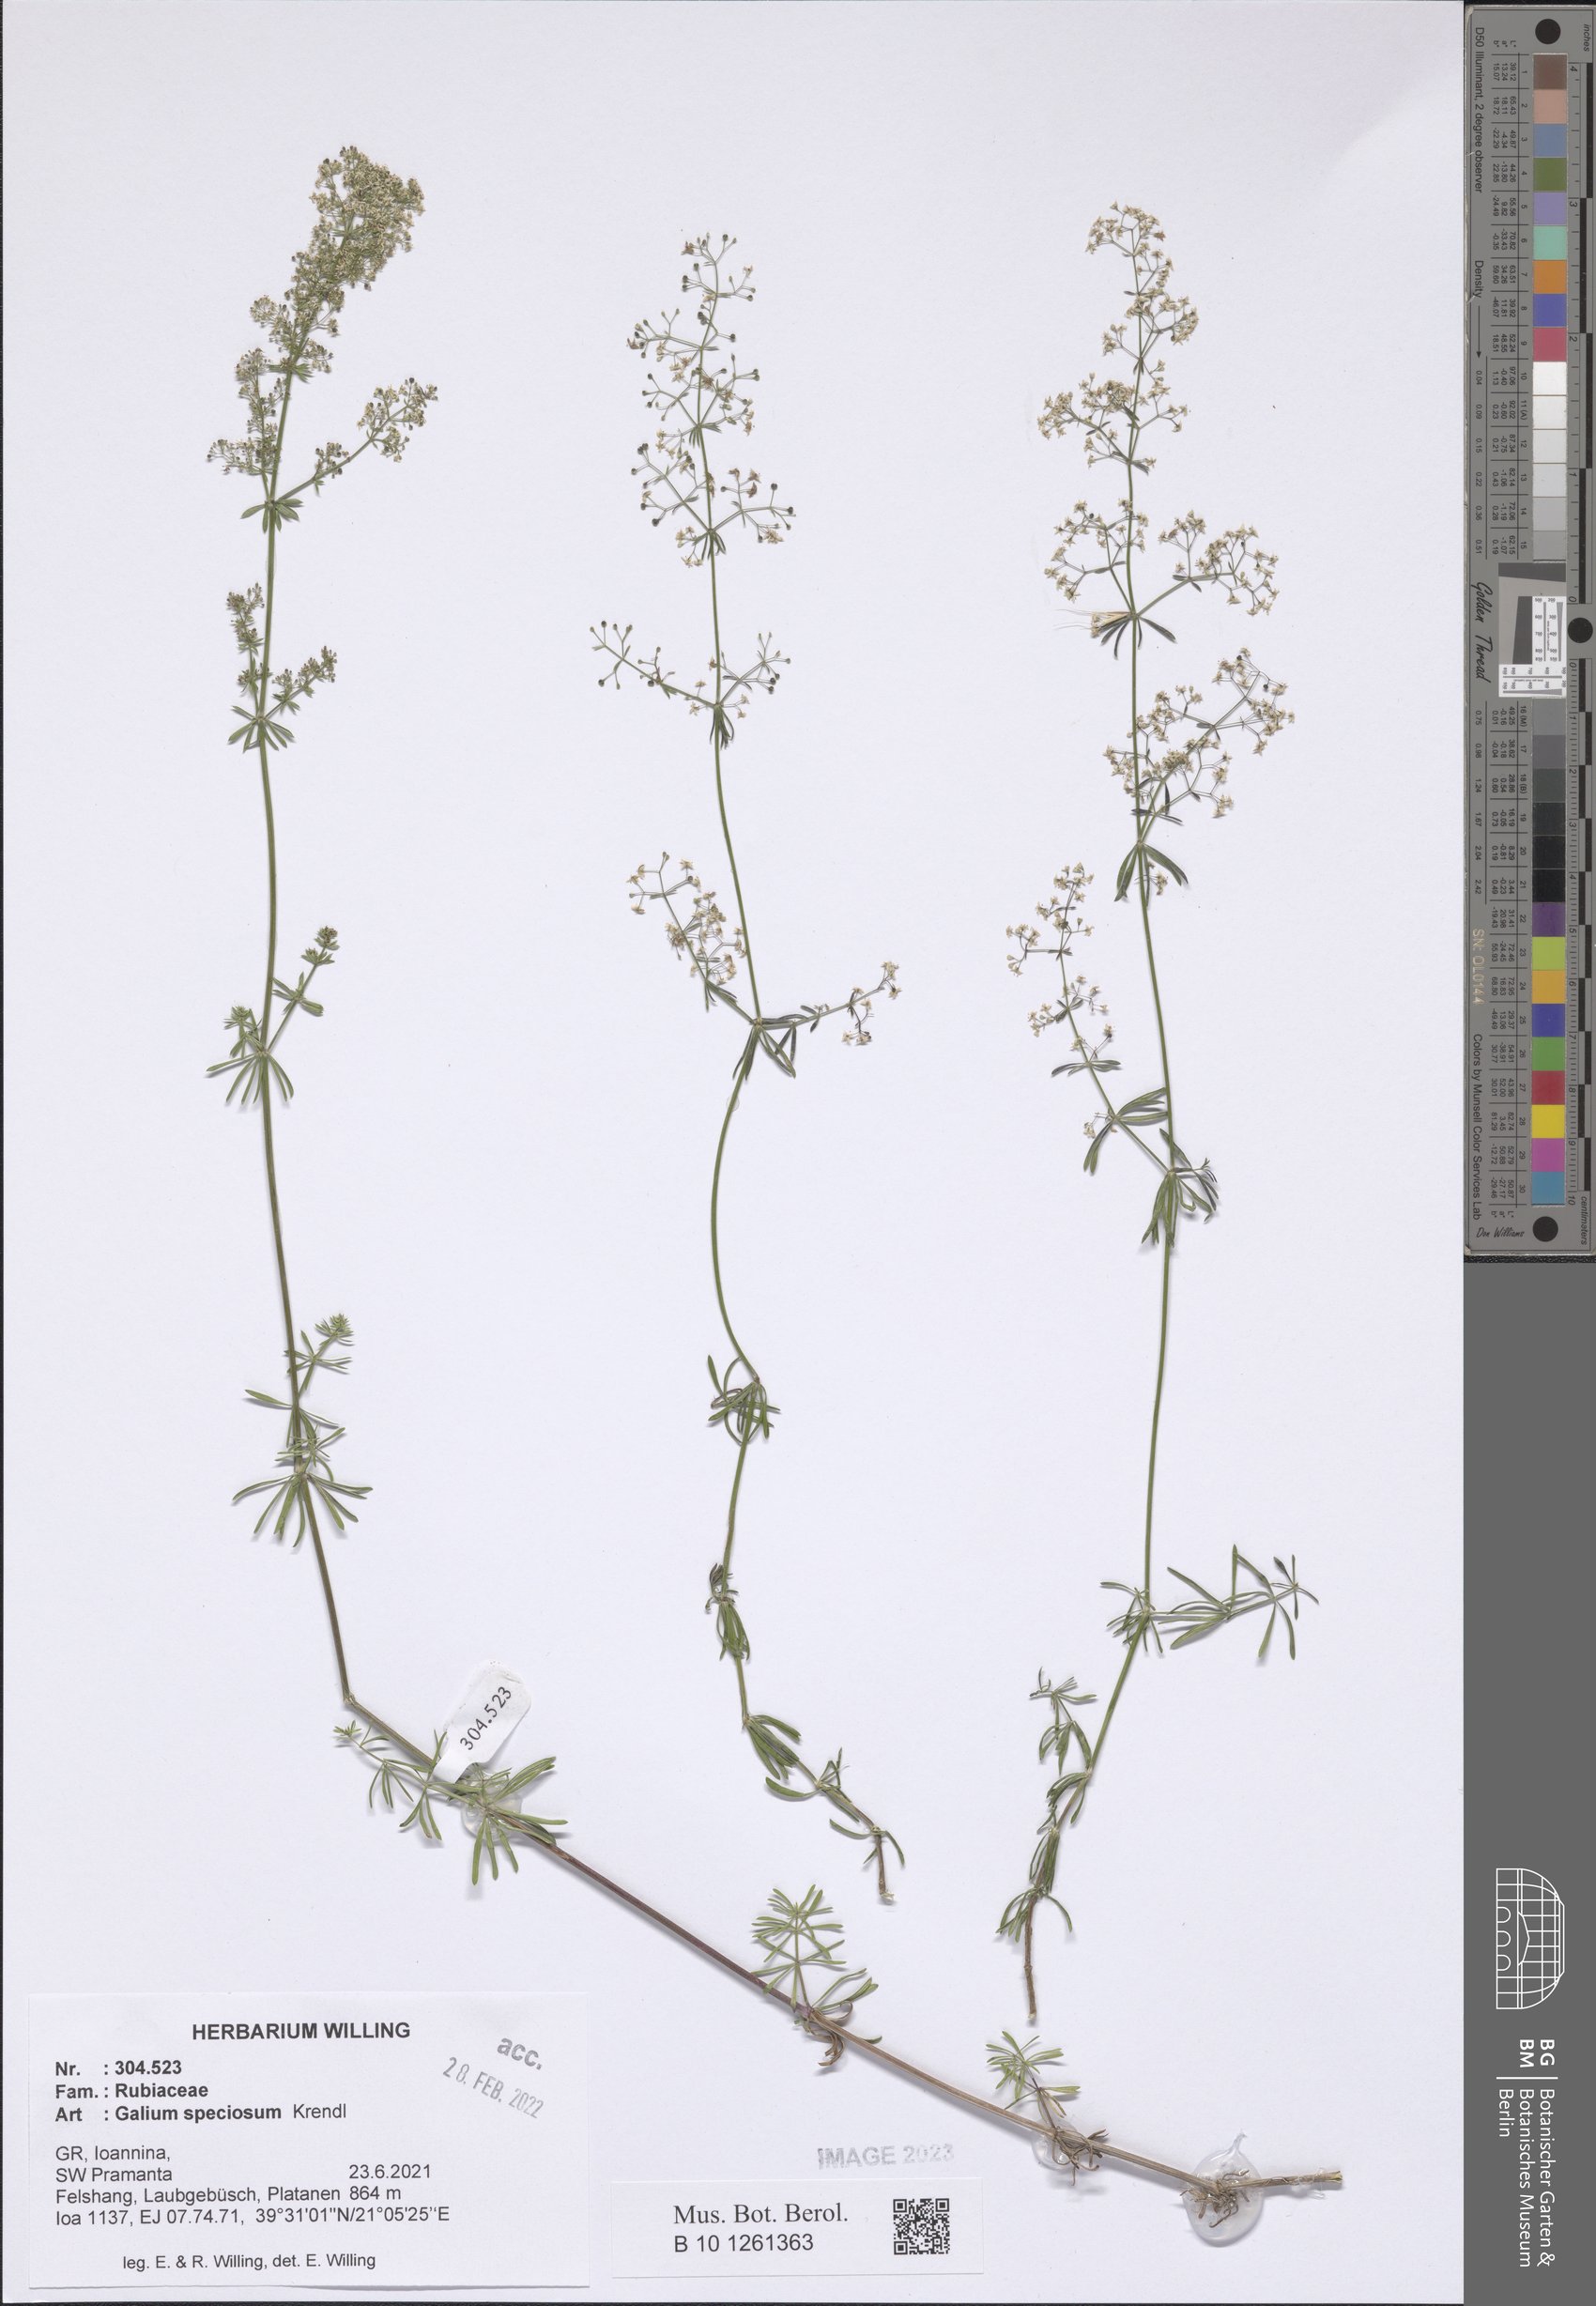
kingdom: Plantae
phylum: Tracheophyta
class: Magnoliopsida
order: Gentianales
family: Rubiaceae
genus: Galium
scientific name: Galium speciosum
